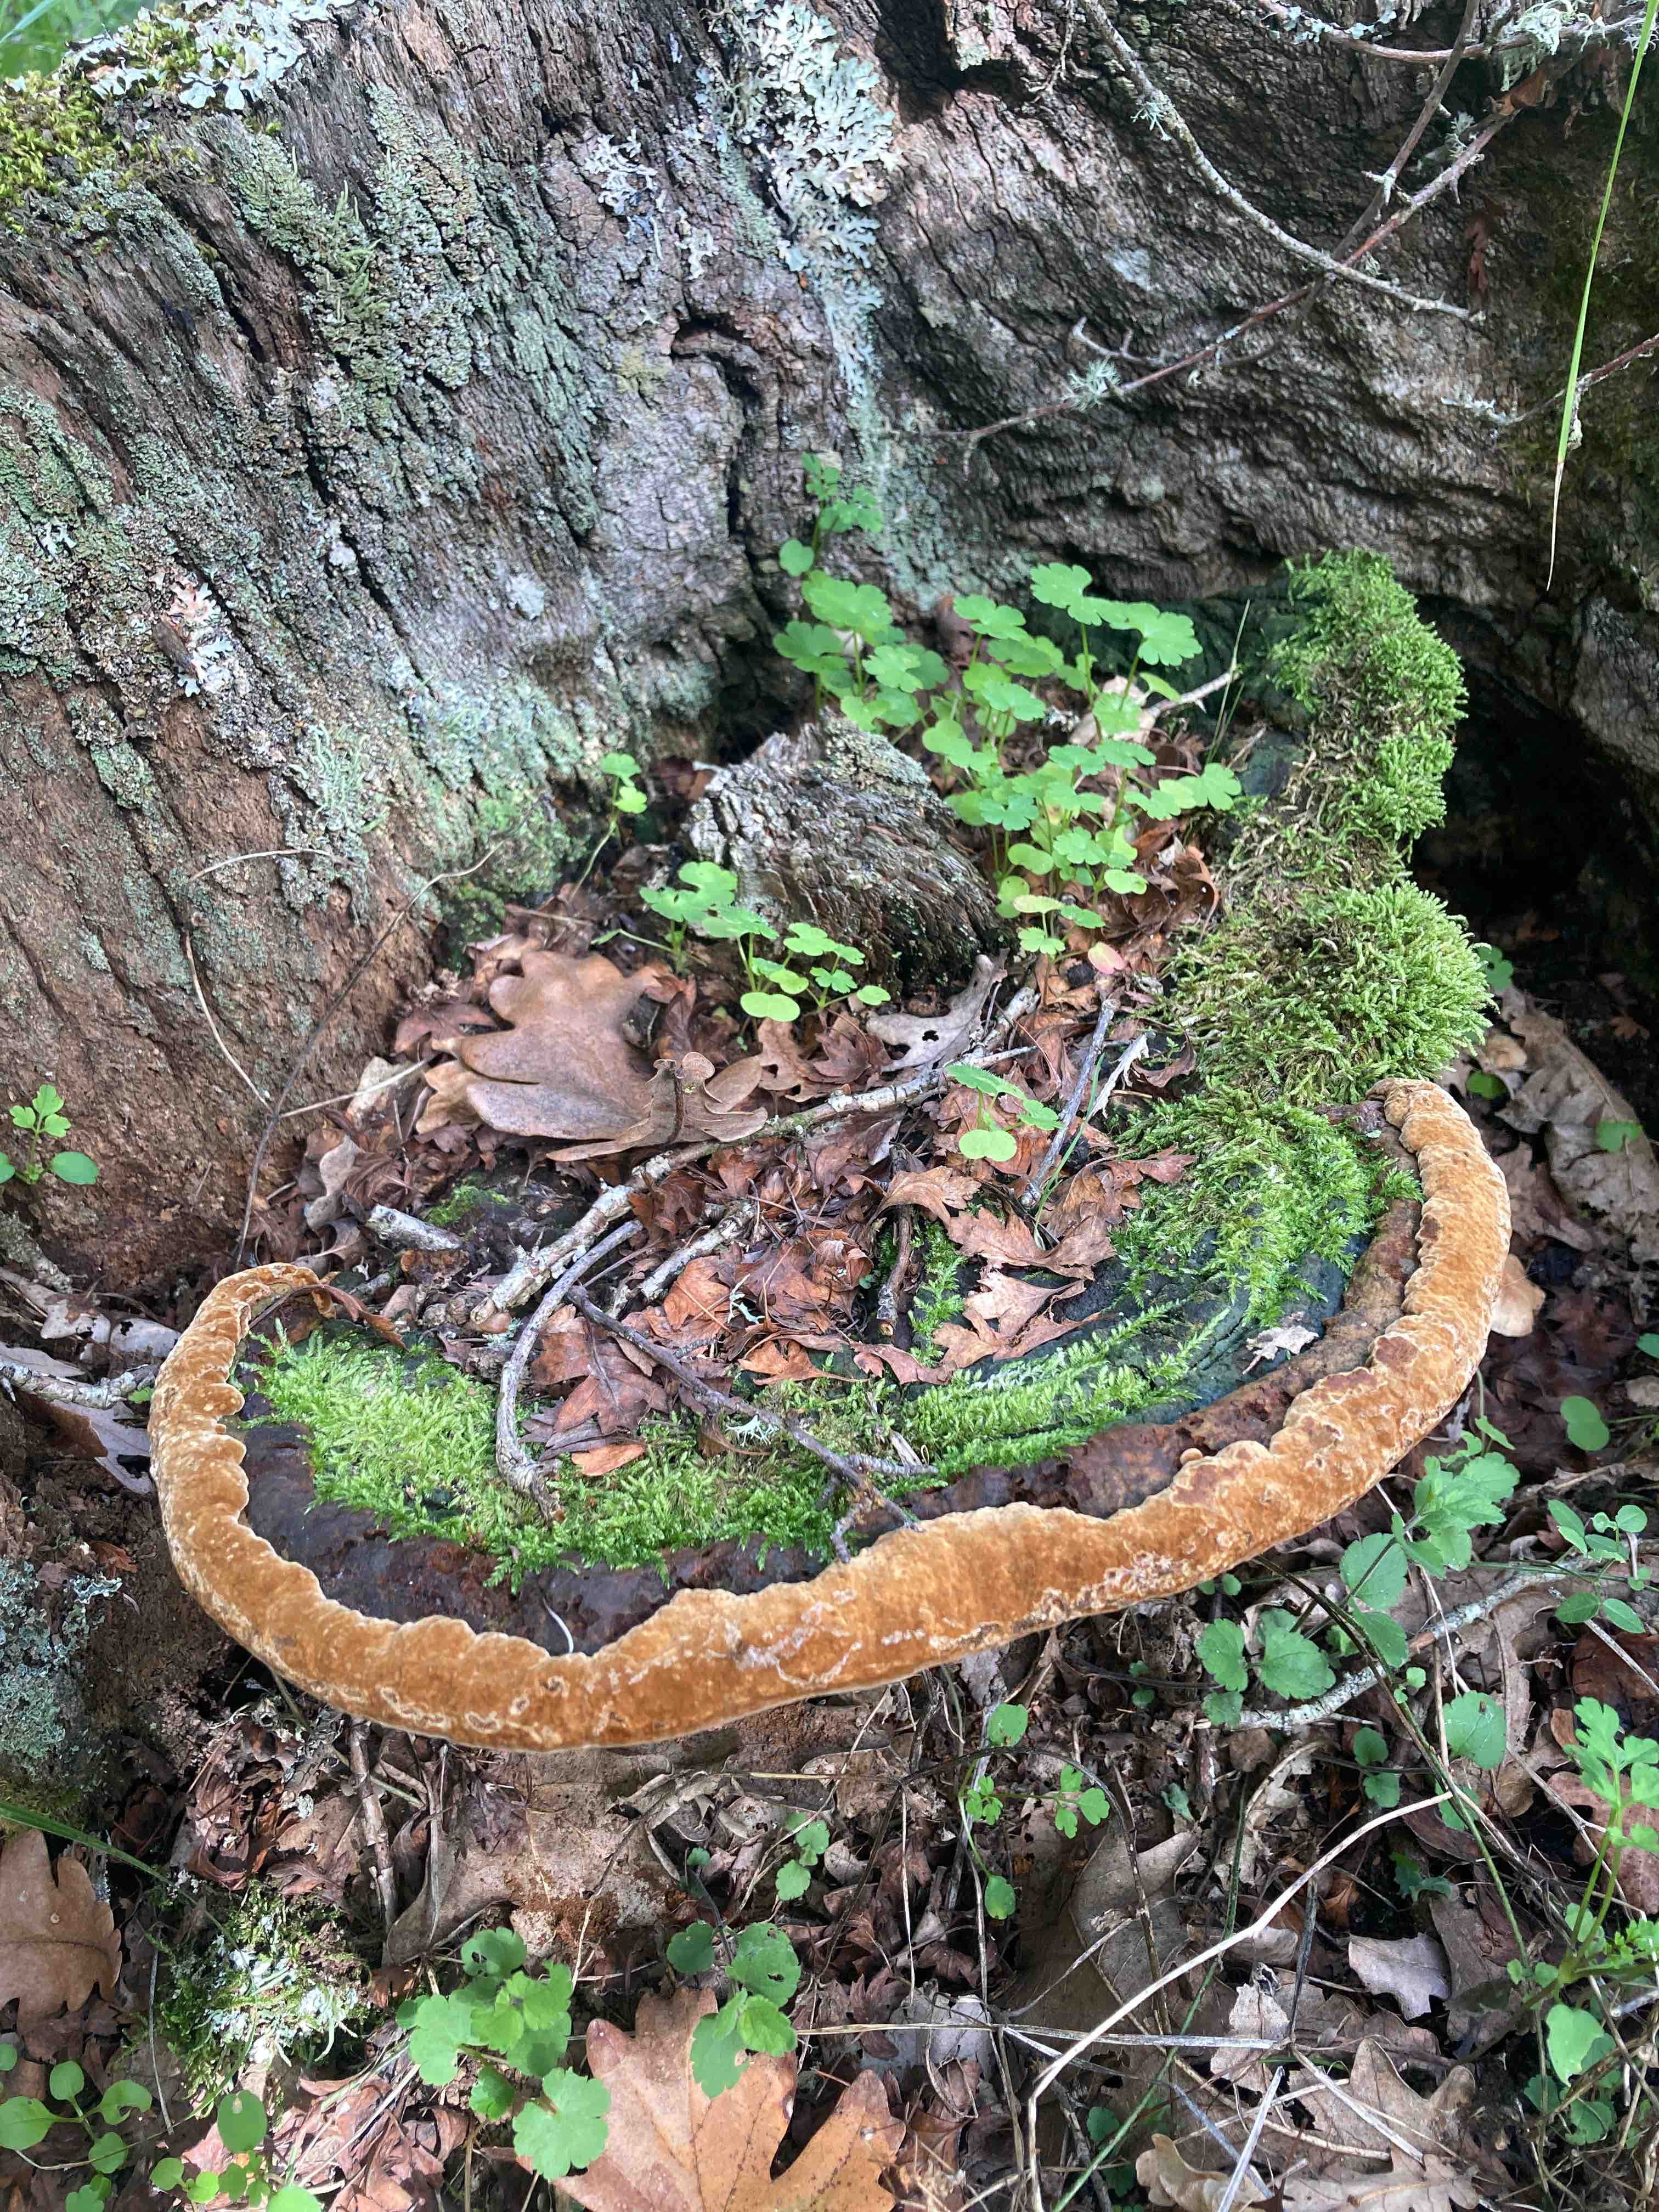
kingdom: Fungi
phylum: Basidiomycota
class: Agaricomycetes
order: Hymenochaetales
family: Hymenochaetaceae
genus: Fuscoporia
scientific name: Fuscoporia torulosa
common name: Tufted bracket
